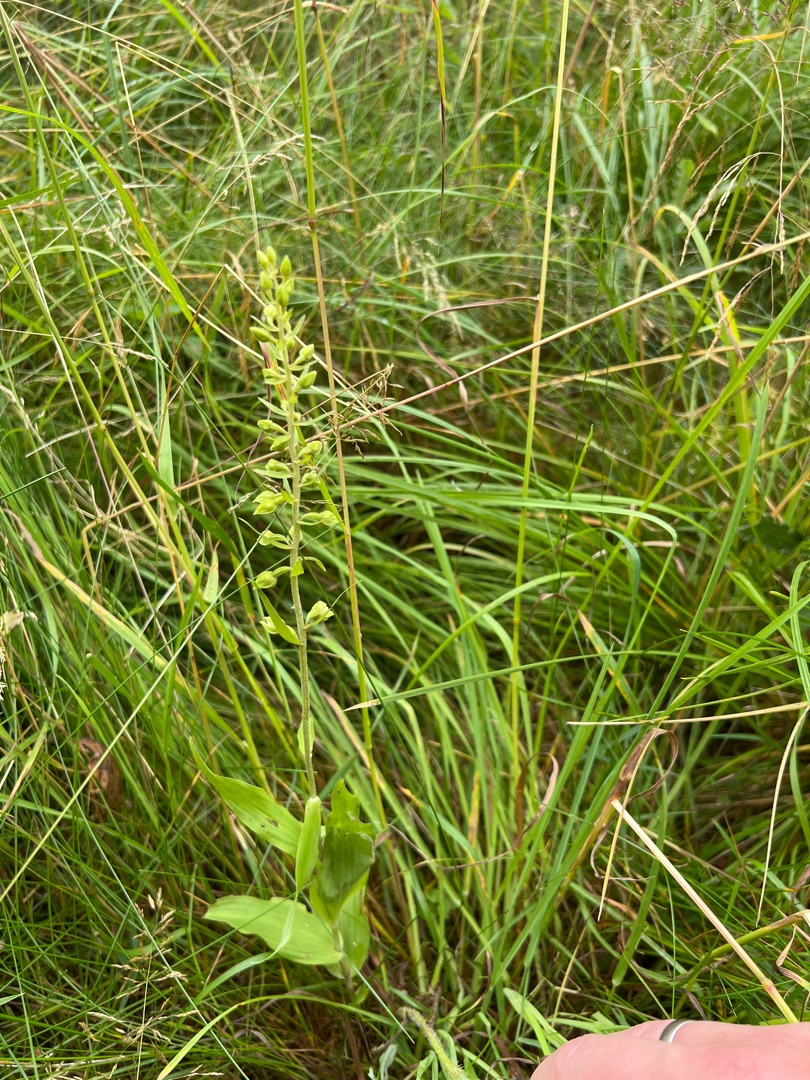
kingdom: Plantae
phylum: Tracheophyta
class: Liliopsida
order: Asparagales
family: Orchidaceae
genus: Epipactis
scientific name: Epipactis helleborine
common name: Skov-hullæbe
